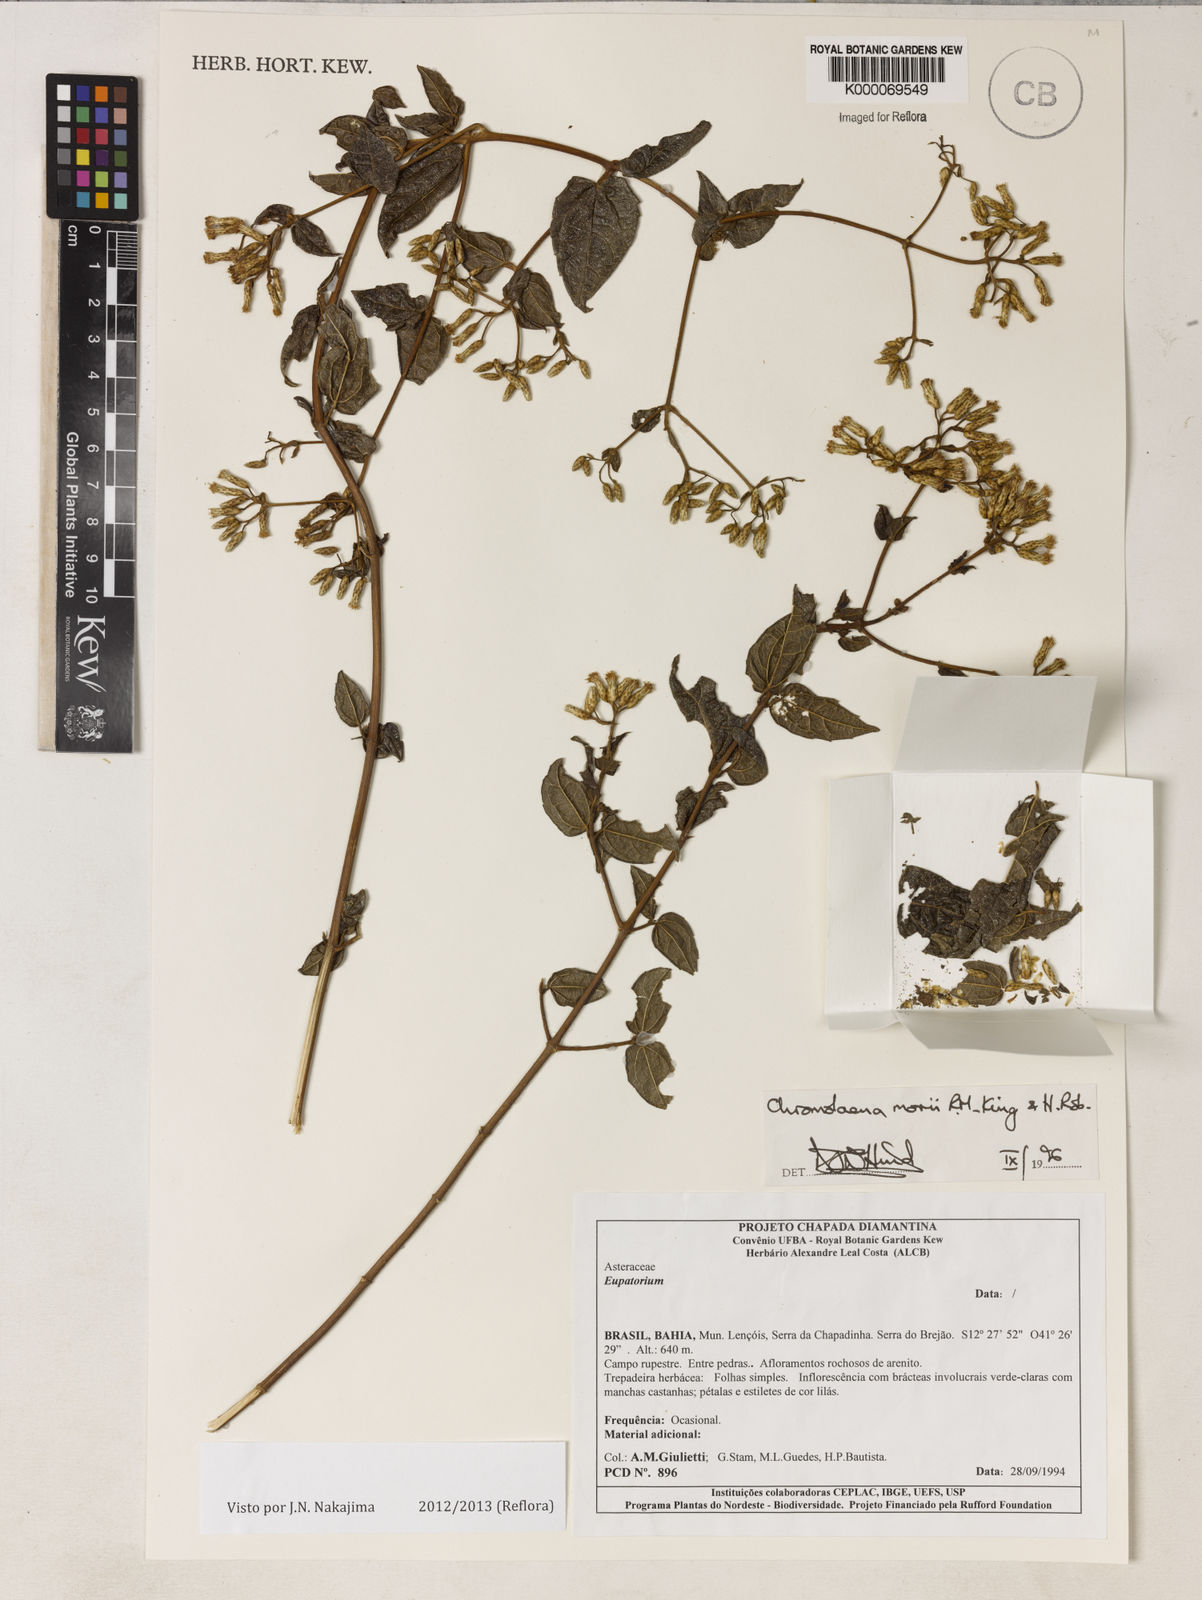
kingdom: Plantae
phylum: Tracheophyta
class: Magnoliopsida
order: Asterales
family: Asteraceae
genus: Chromolaena
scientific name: Chromolaena morii
